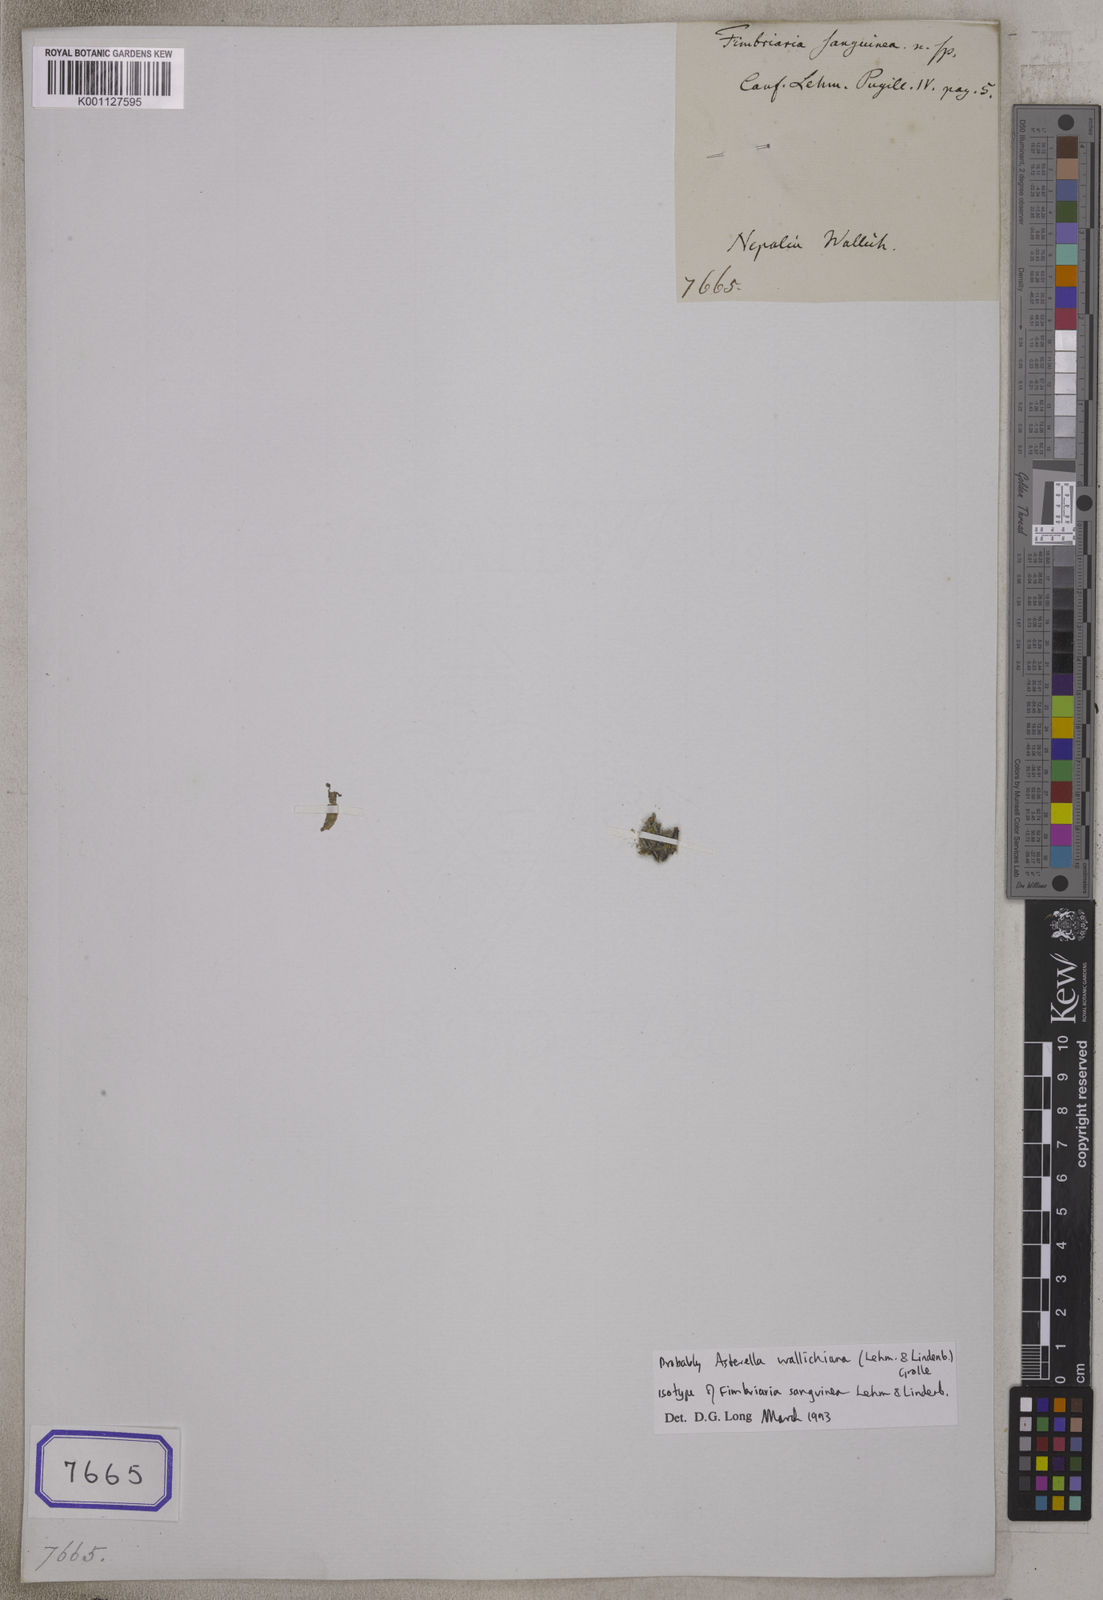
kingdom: Plantae
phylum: Marchantiophyta
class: Marchantiopsida
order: Marchantiales
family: Aytoniaceae
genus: Fimbriaria
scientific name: Fimbriaria
